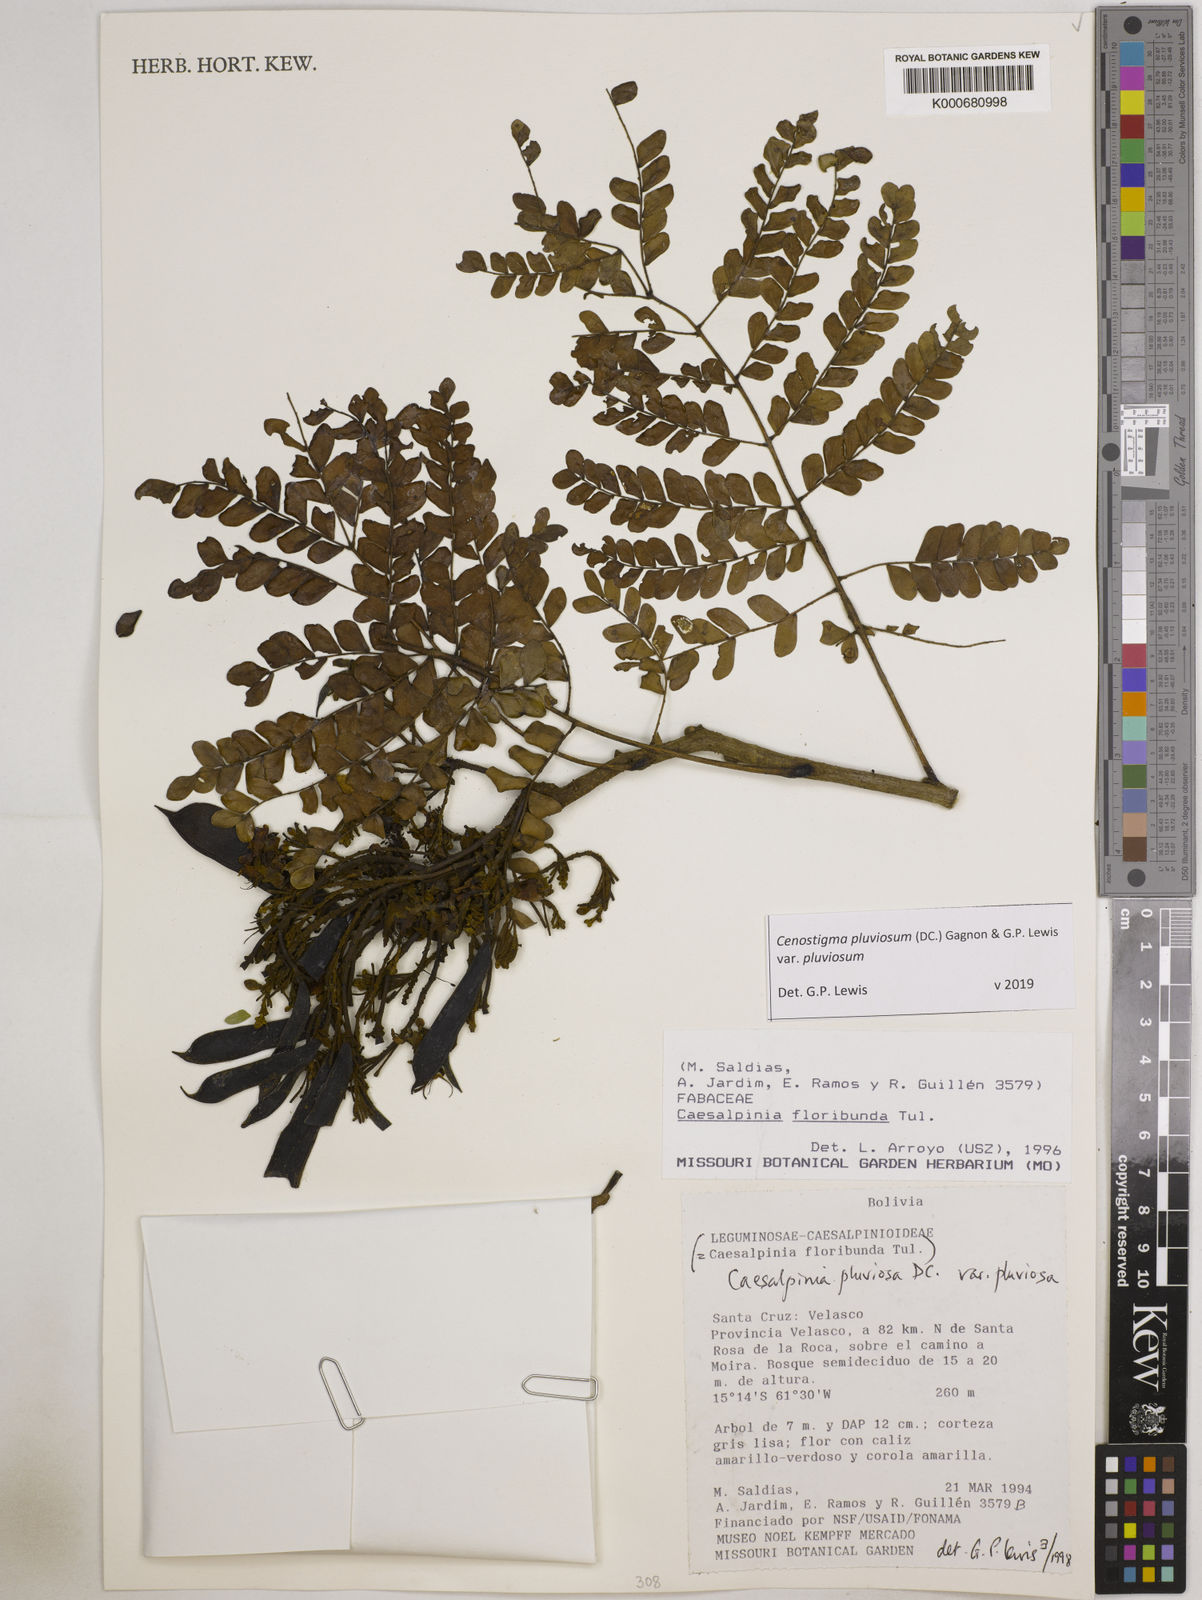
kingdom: Plantae
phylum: Tracheophyta
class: Magnoliopsida
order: Fabales
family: Fabaceae
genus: Cenostigma
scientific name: Cenostigma pluviosum
